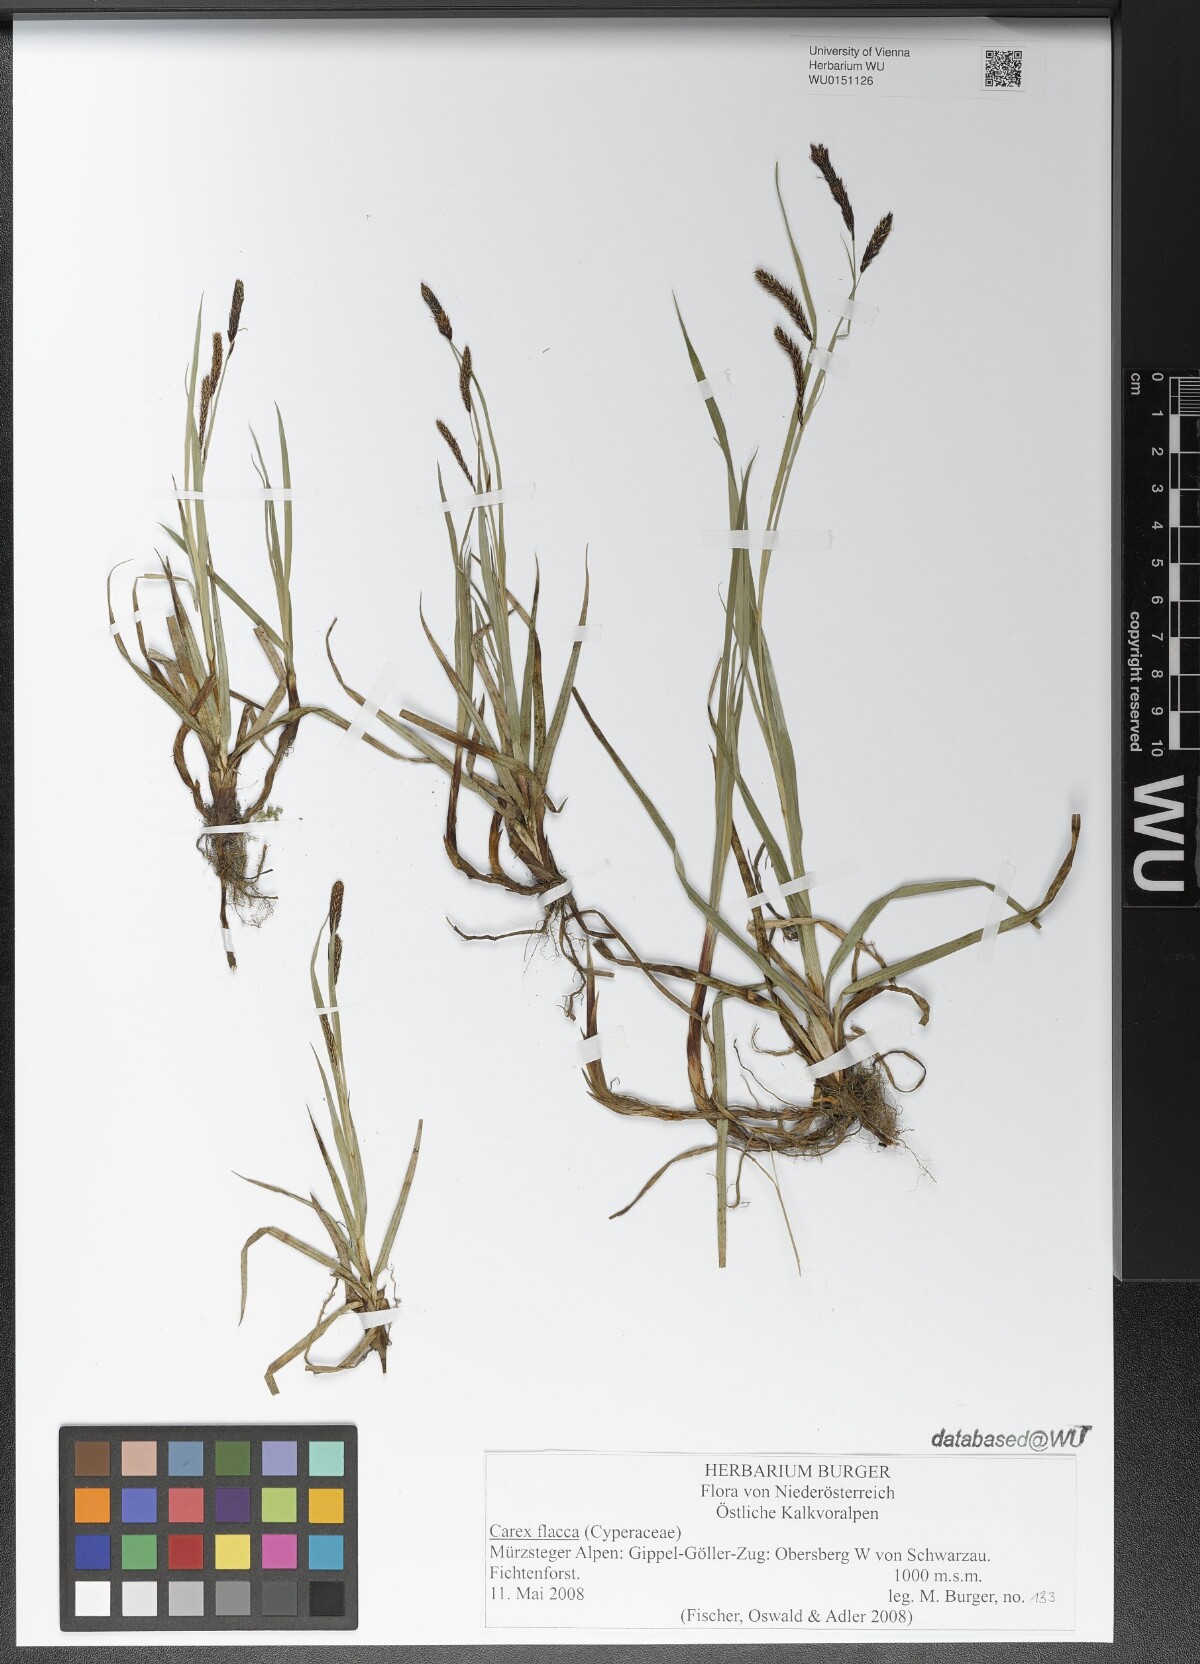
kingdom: Plantae
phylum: Tracheophyta
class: Liliopsida
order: Poales
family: Cyperaceae
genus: Carex
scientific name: Carex flacca
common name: Glaucous sedge
